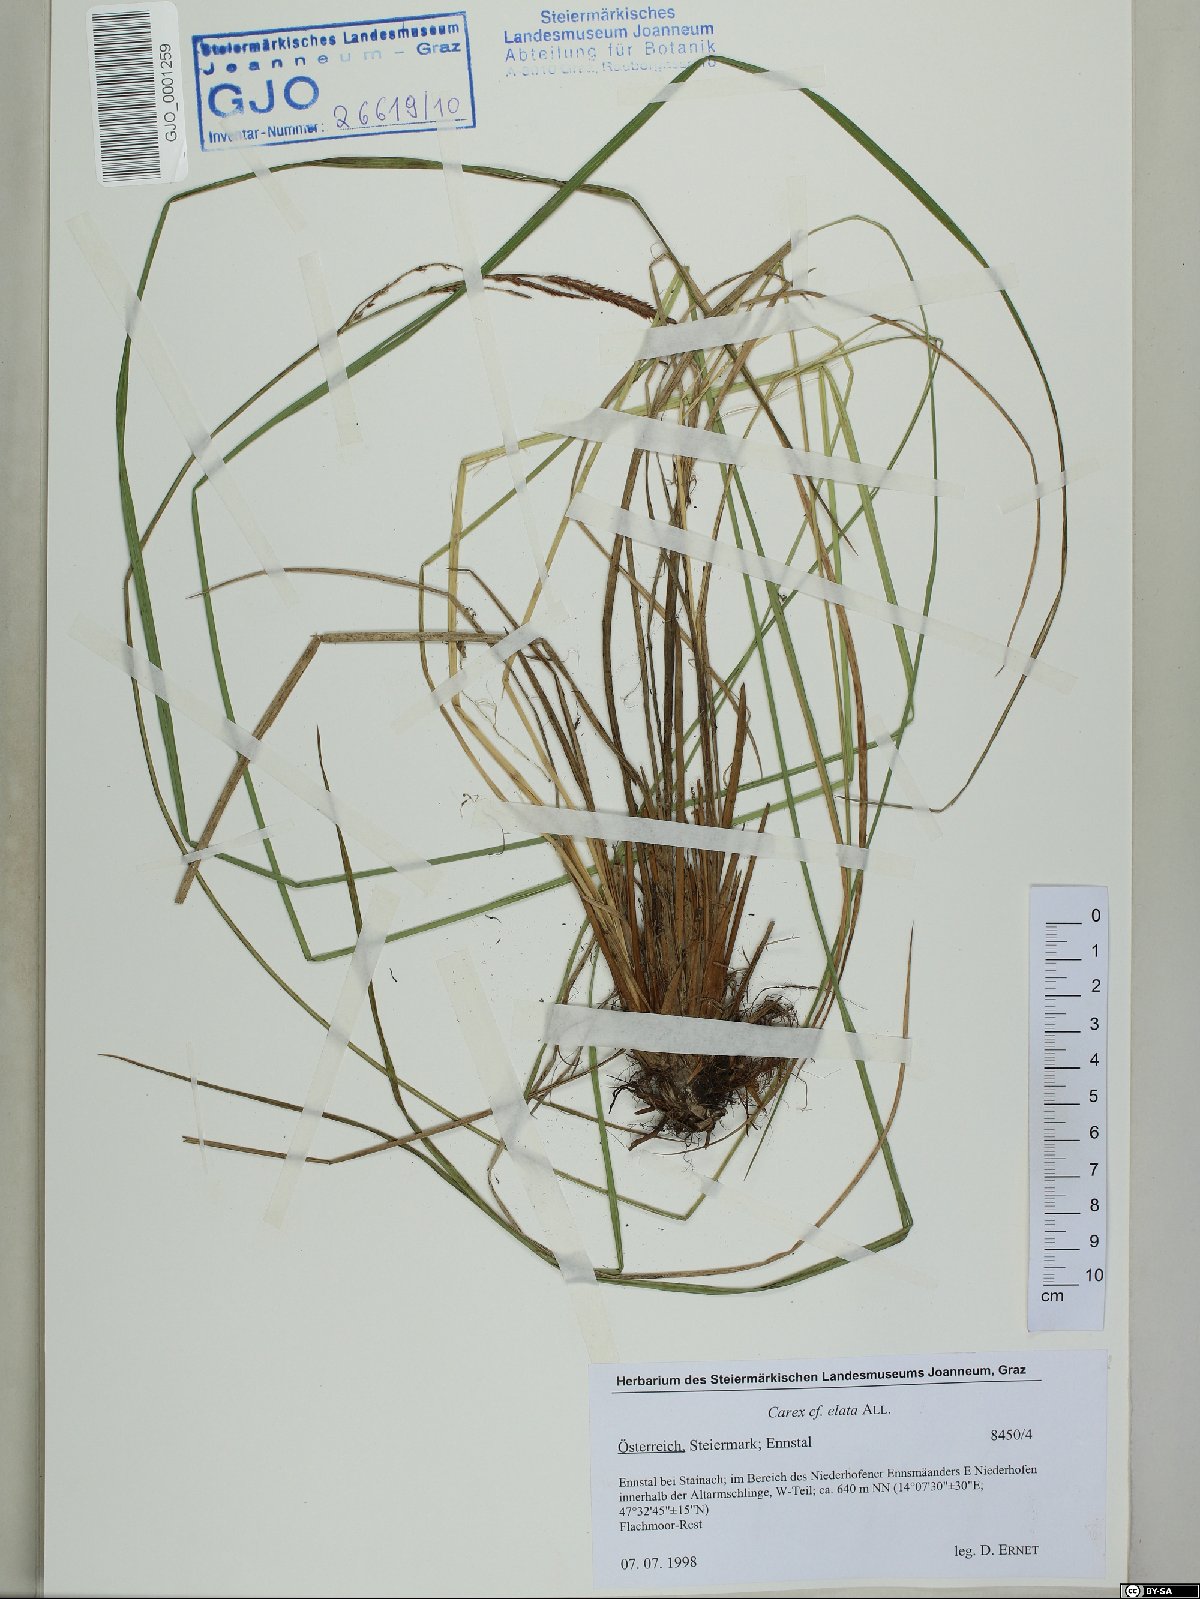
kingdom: Plantae
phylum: Tracheophyta
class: Liliopsida
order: Poales
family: Cyperaceae
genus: Carex
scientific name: Carex elata
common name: Tufted sedge
